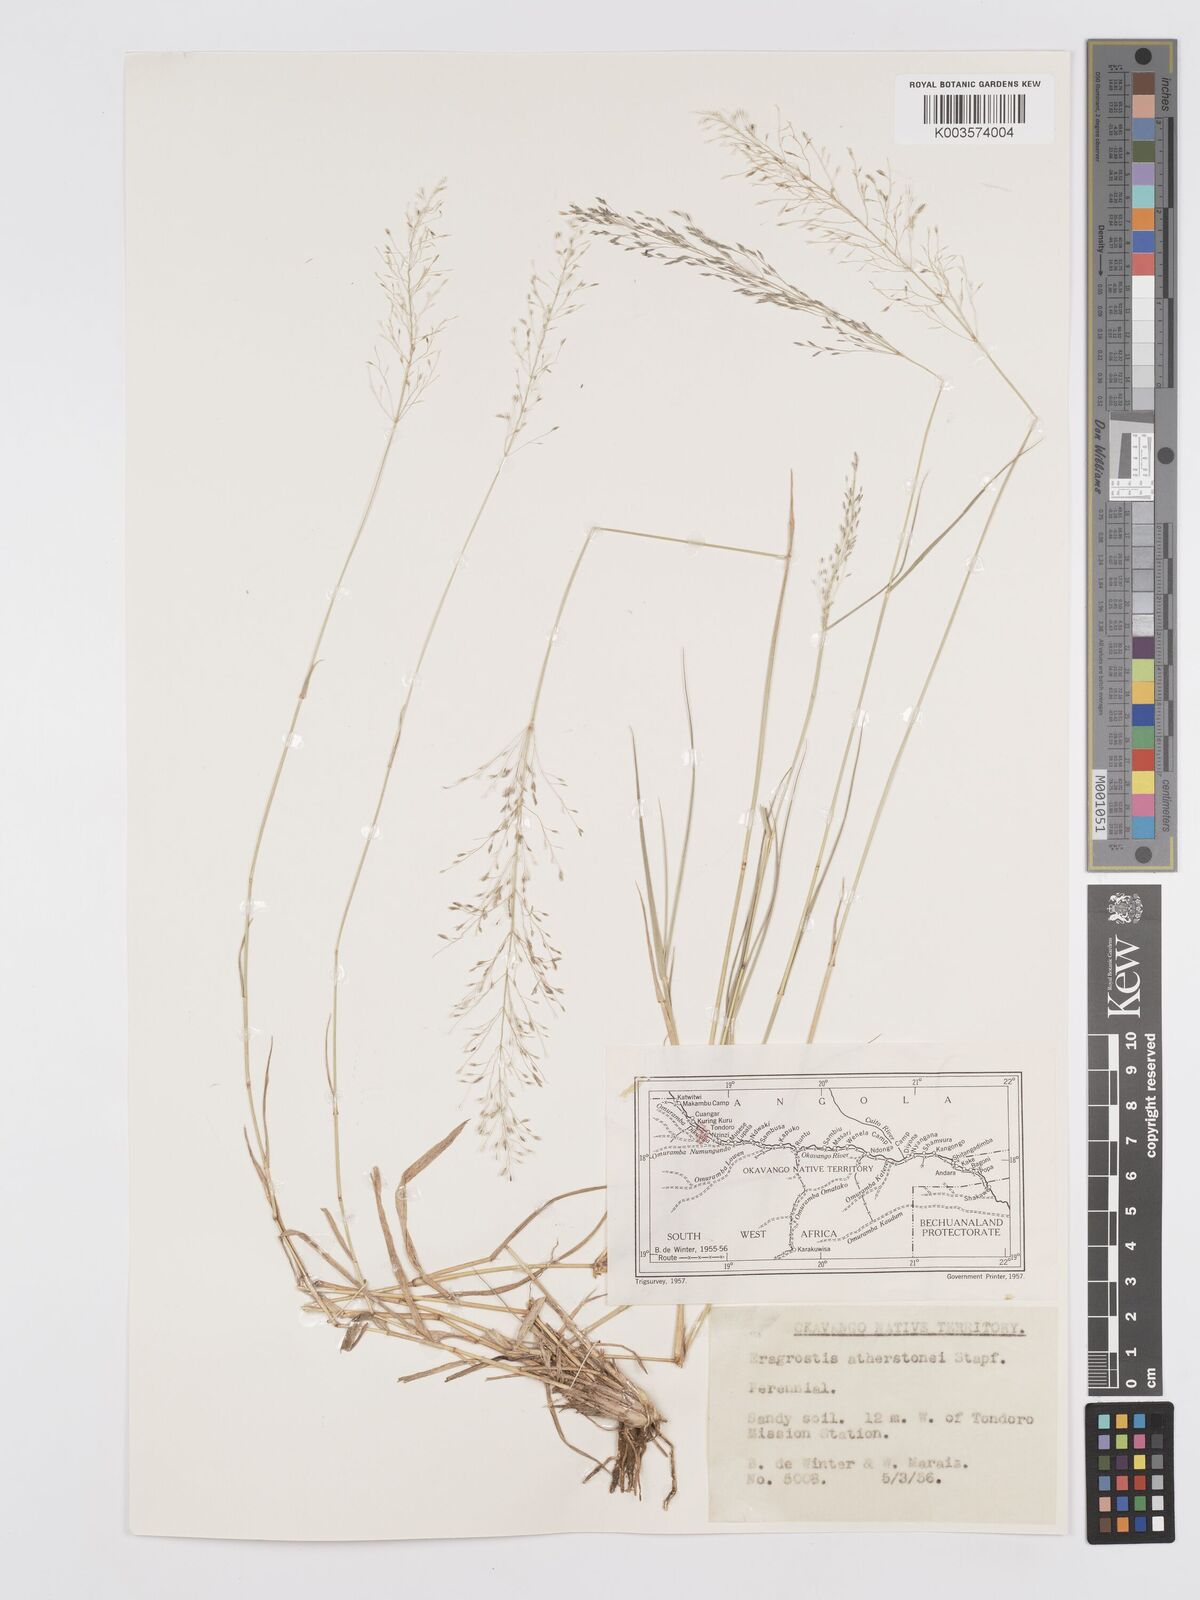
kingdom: Plantae
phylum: Tracheophyta
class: Liliopsida
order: Poales
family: Poaceae
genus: Eragrostis
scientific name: Eragrostis cylindriflora
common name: Cylinderflower lovegrass
